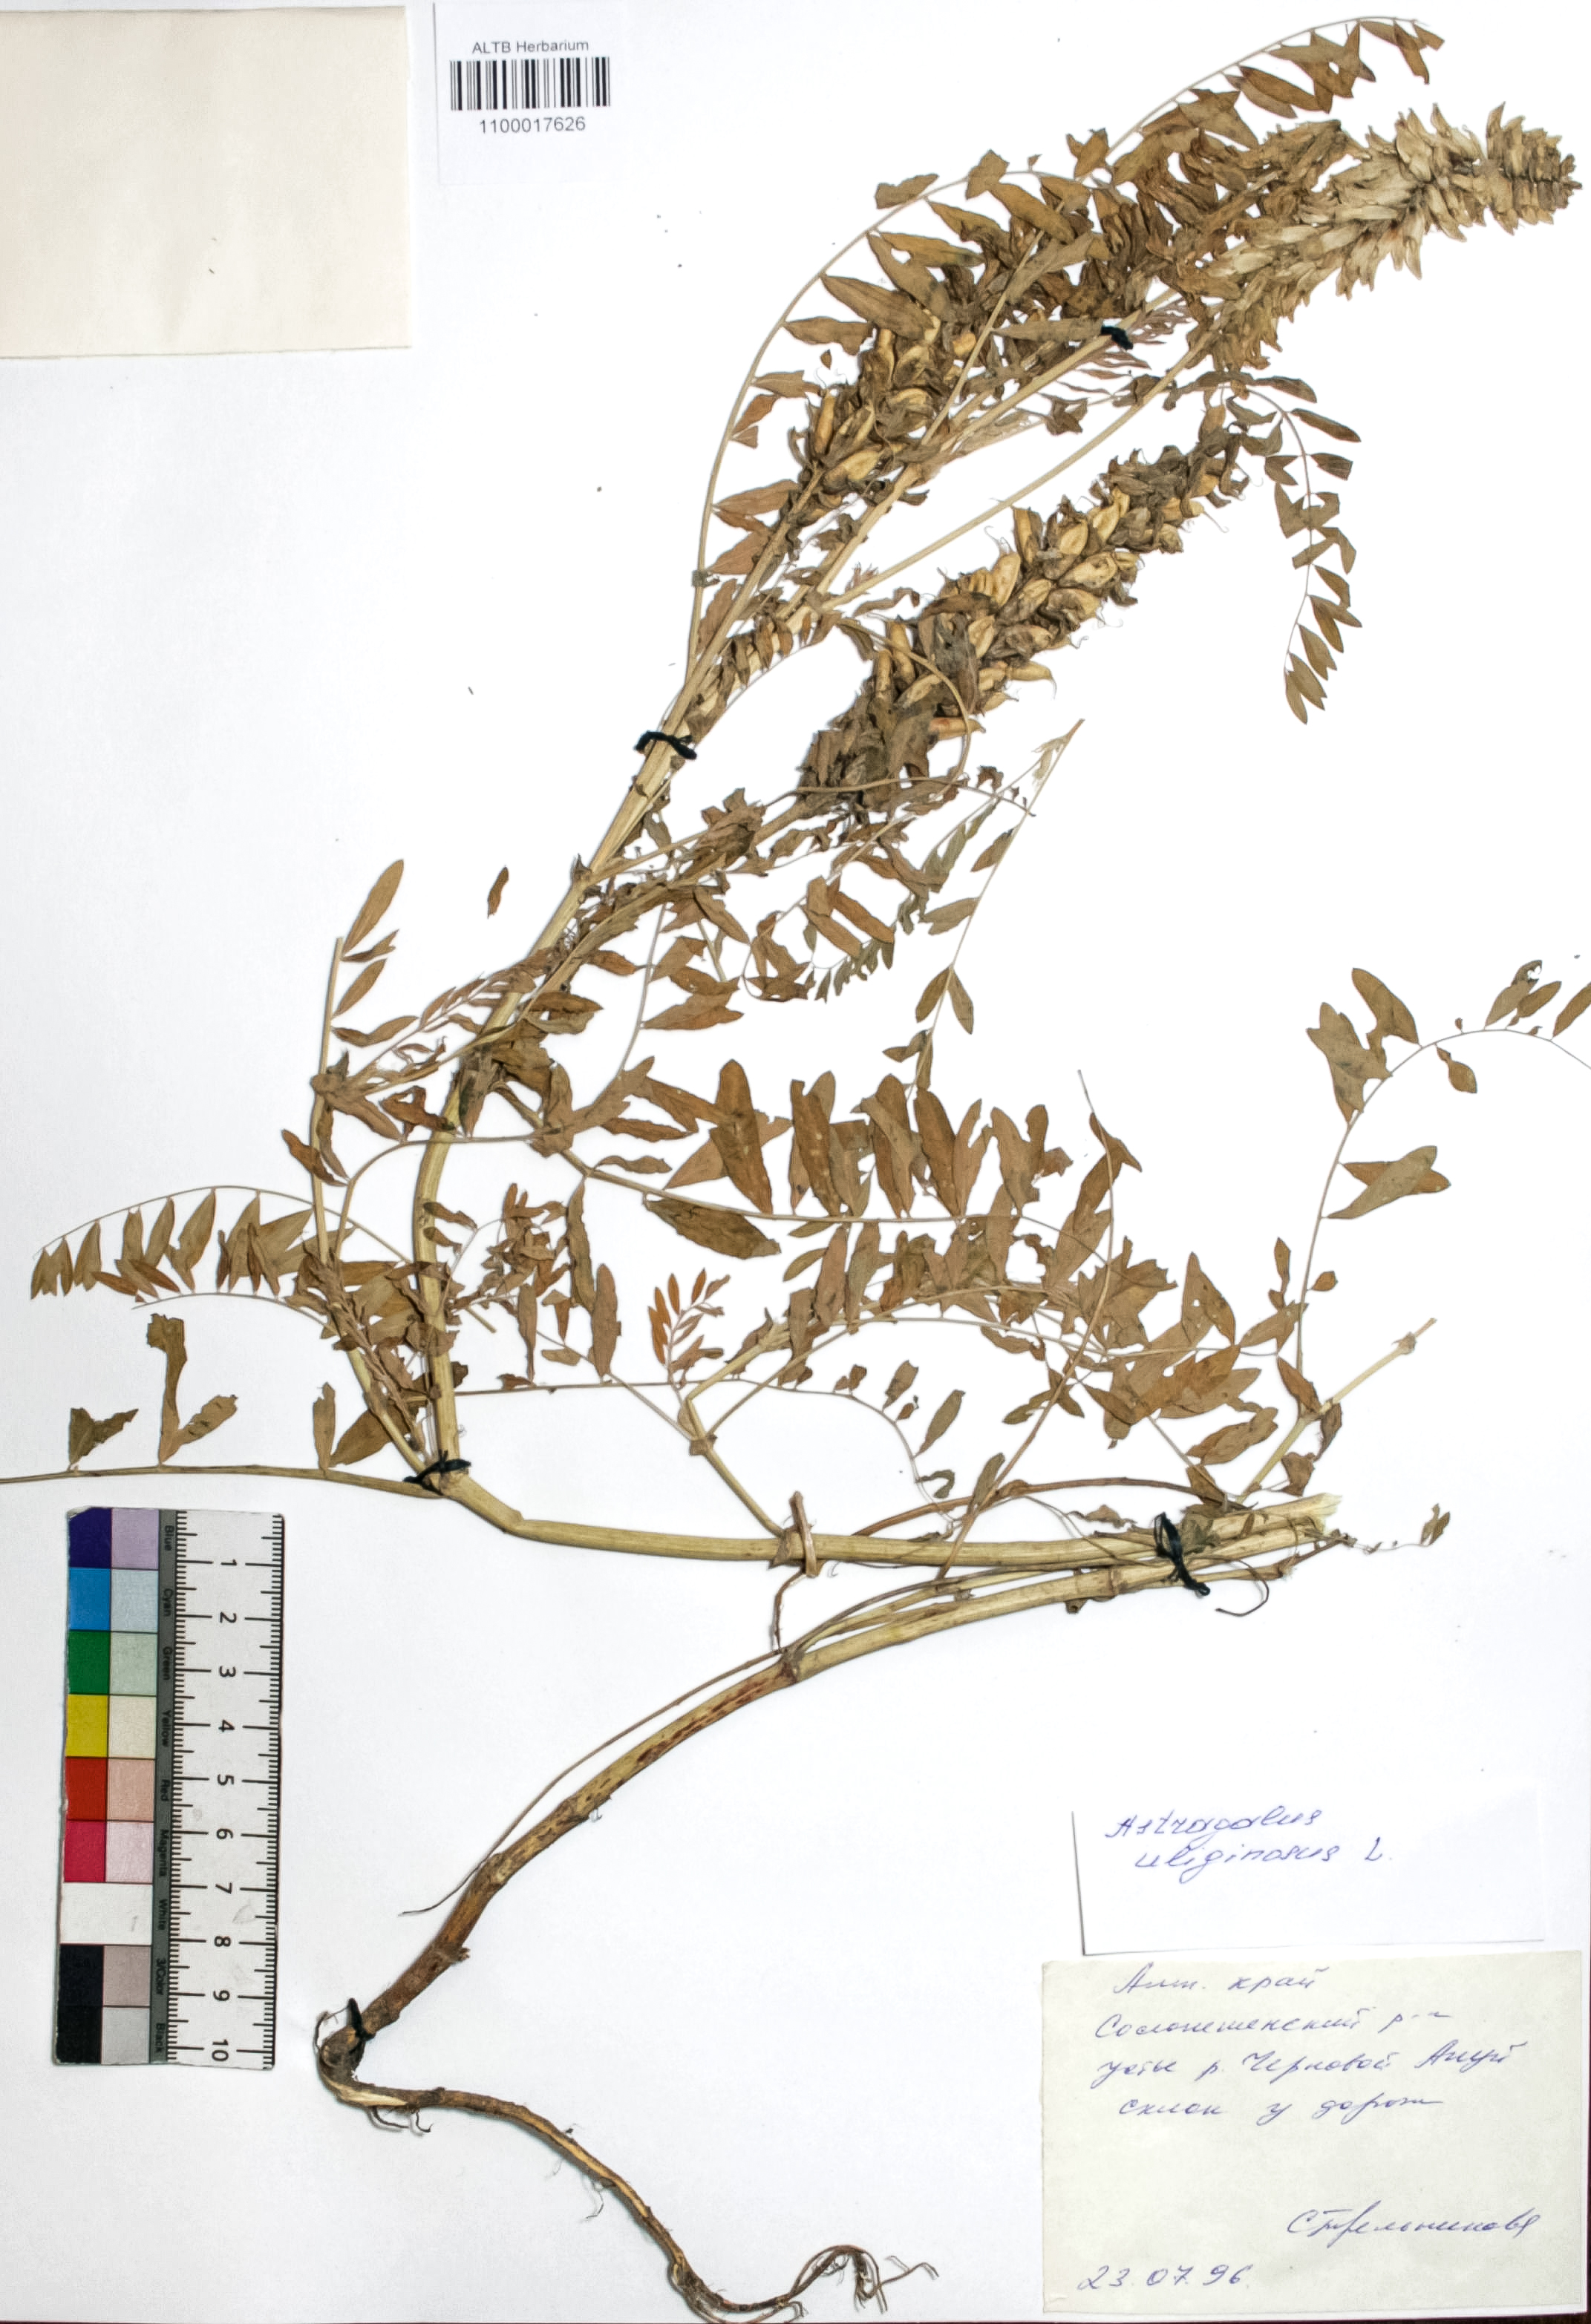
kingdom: Plantae
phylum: Tracheophyta
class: Magnoliopsida
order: Fabales
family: Fabaceae
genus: Astragalus
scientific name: Astragalus uliginosus
